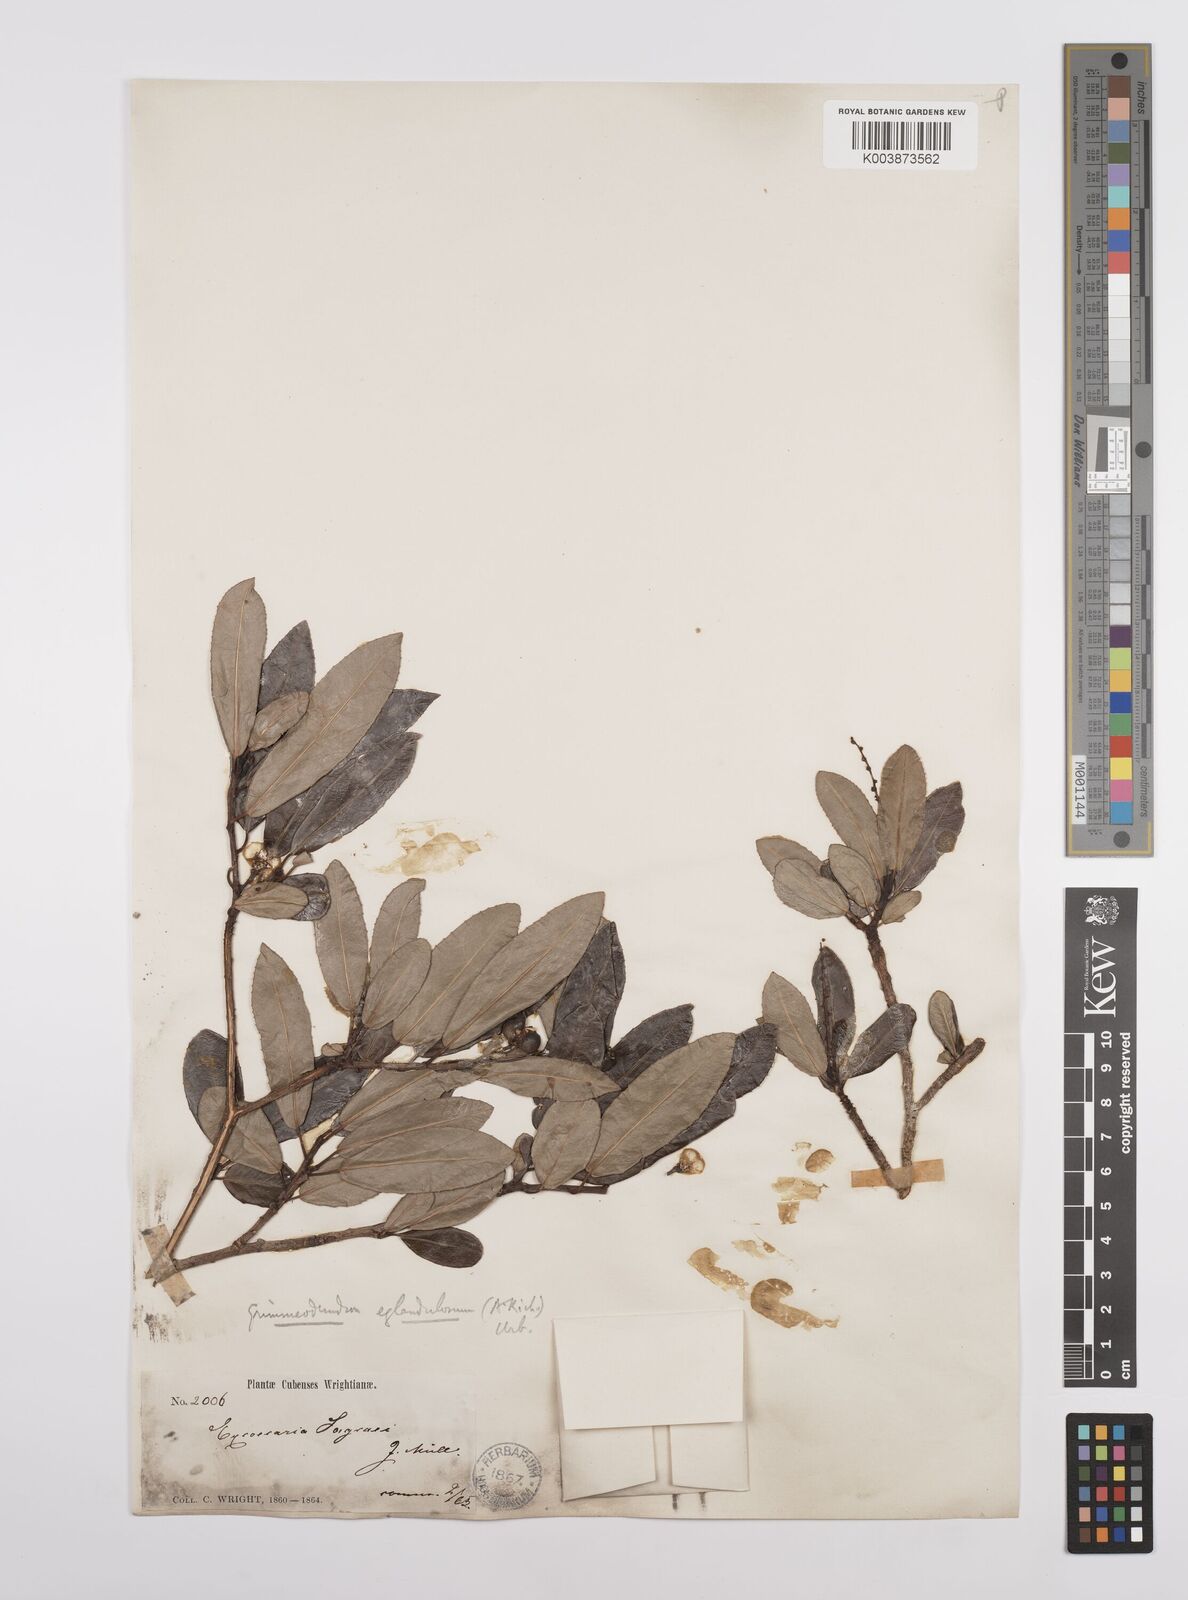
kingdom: Plantae
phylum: Tracheophyta
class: Magnoliopsida
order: Malpighiales
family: Euphorbiaceae
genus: Grimmeodendron
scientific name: Grimmeodendron eglandulosum
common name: Grimm’s tree
